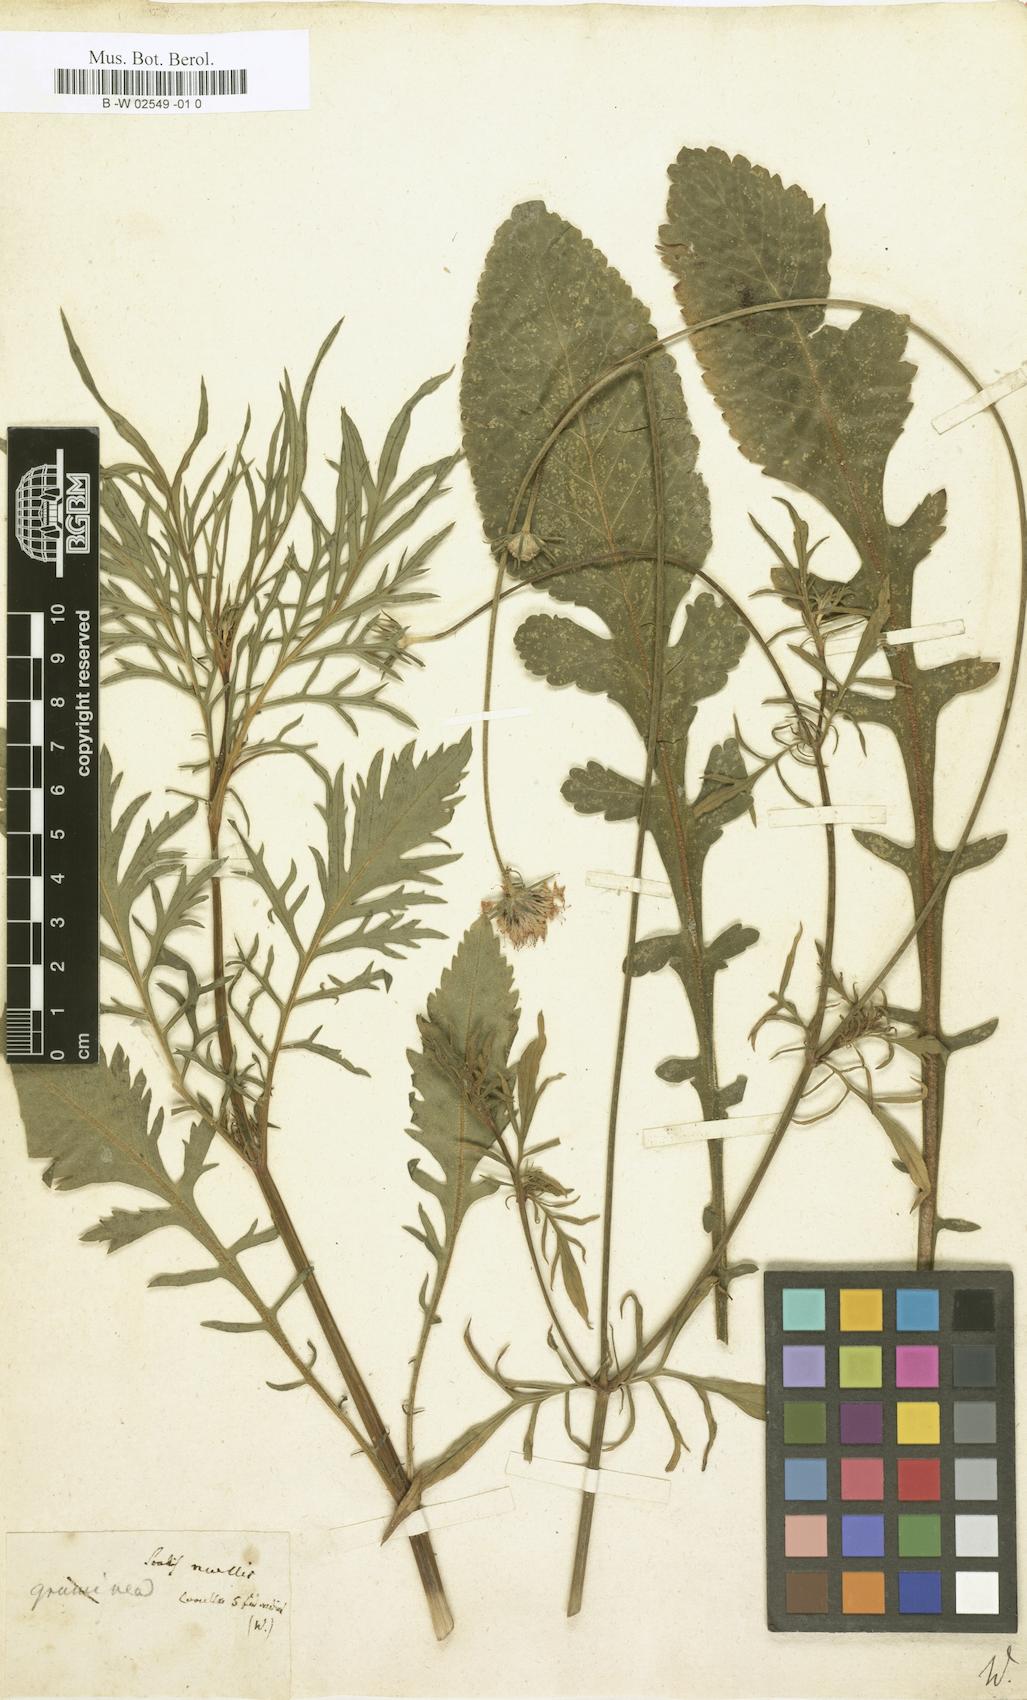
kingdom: Plantae
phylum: Tracheophyta
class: Magnoliopsida
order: Dipsacales
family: Caprifoliaceae
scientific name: Caprifoliaceae
